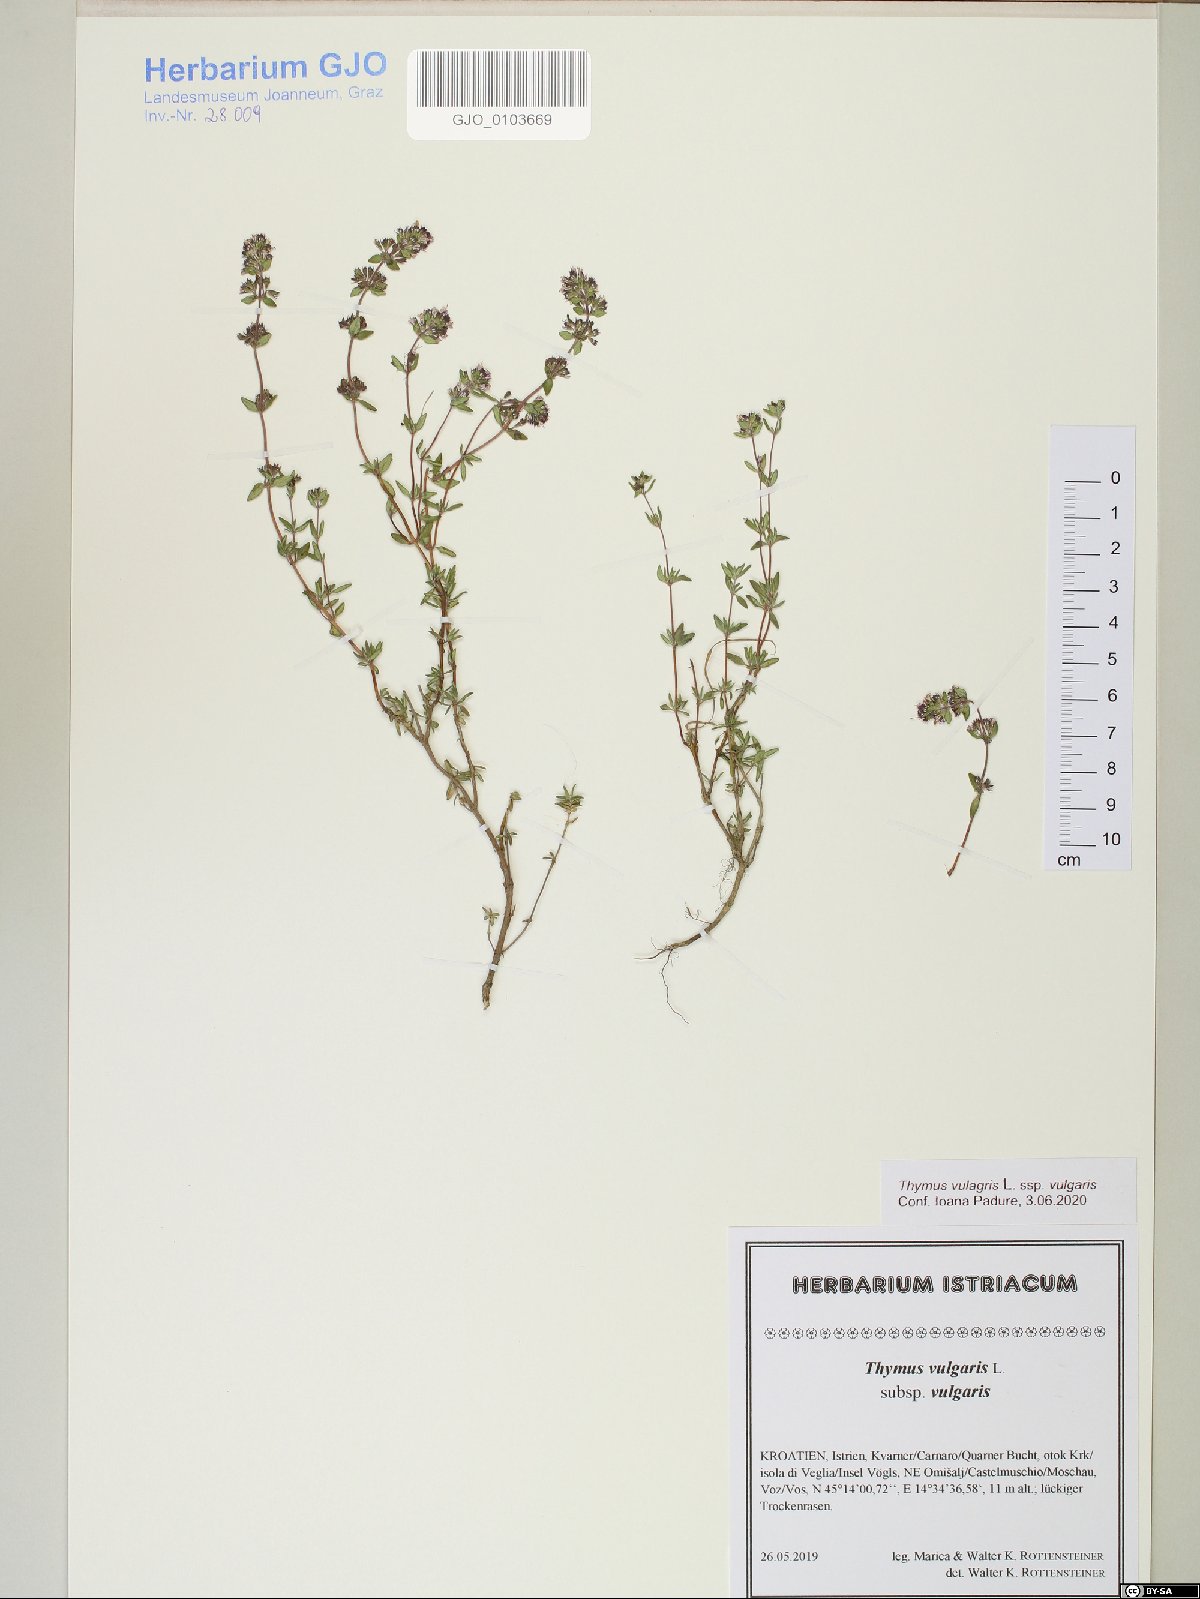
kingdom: Plantae
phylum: Tracheophyta
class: Magnoliopsida
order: Lamiales
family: Lamiaceae
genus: Thymus
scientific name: Thymus vulgaris
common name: Garden thyme
